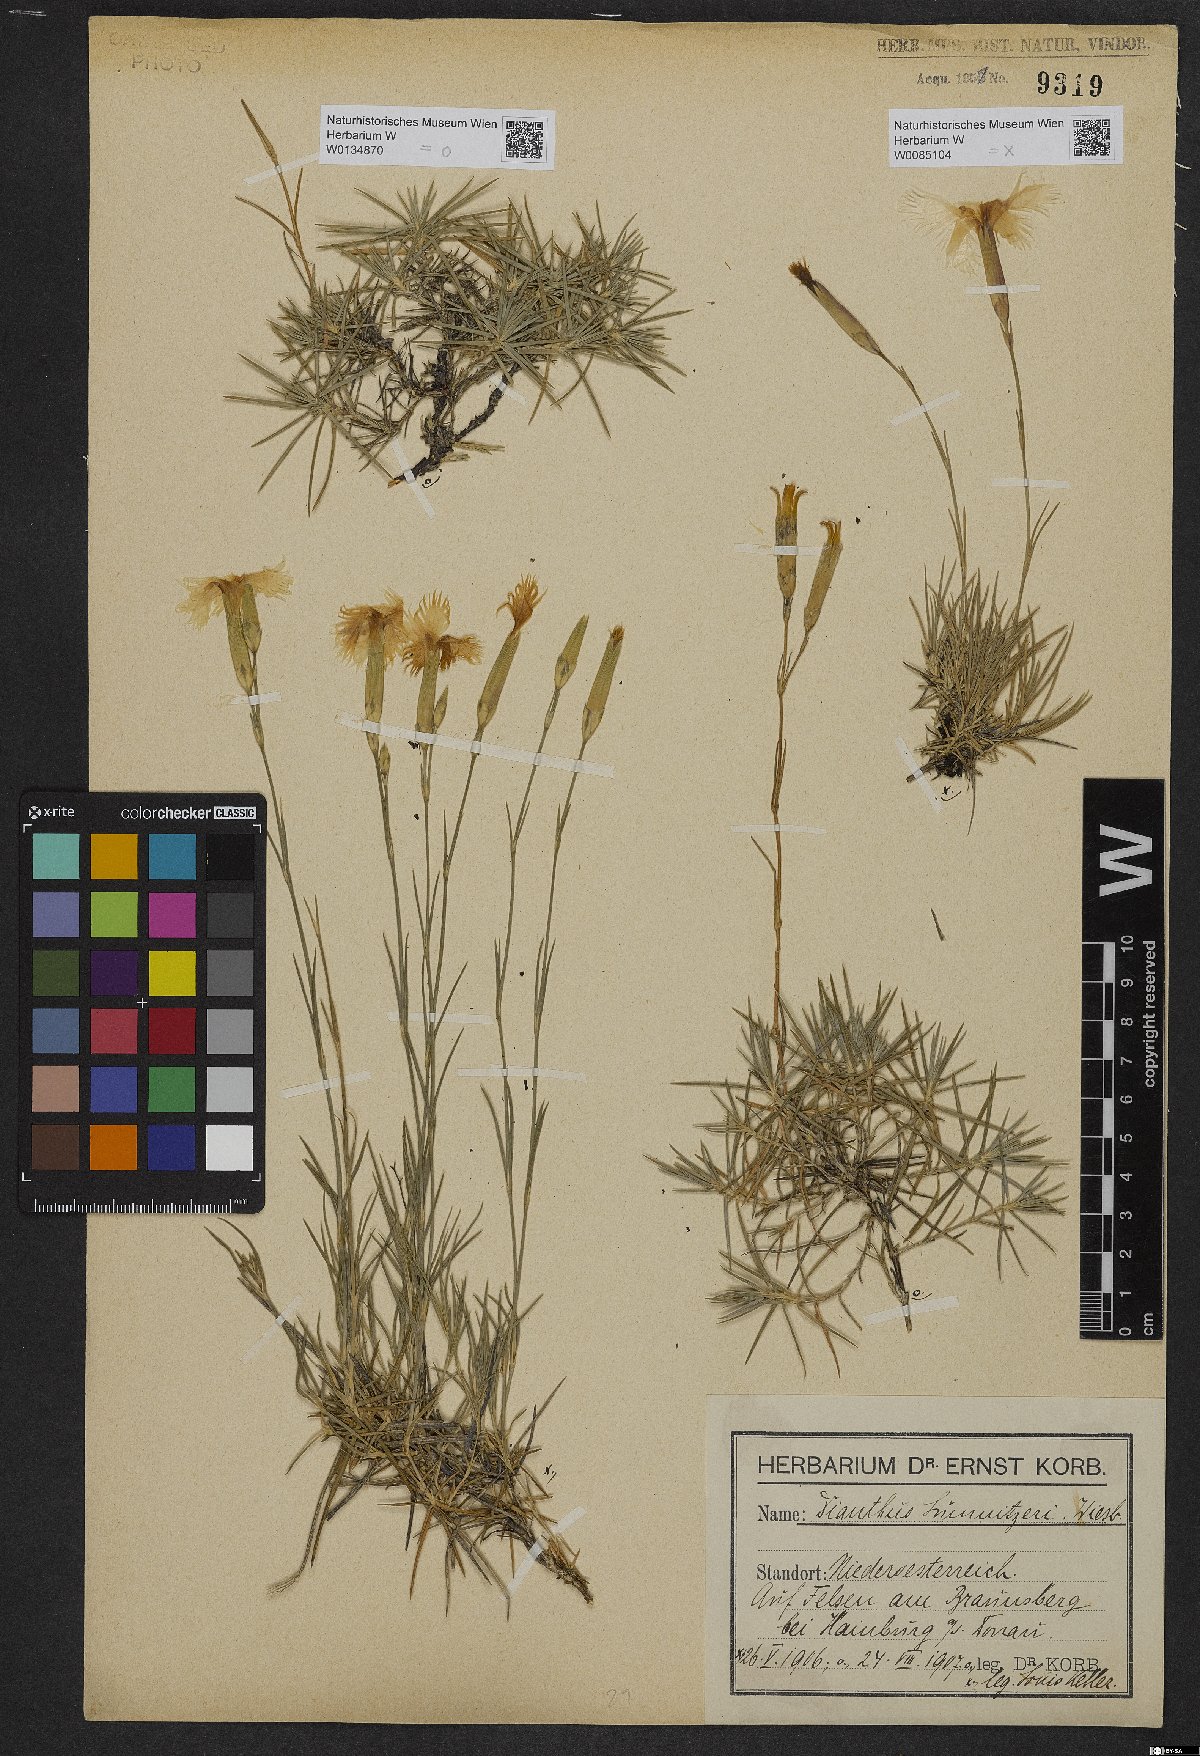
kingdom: Plantae
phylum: Tracheophyta
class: Magnoliopsida
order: Caryophyllales
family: Caryophyllaceae
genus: Dianthus
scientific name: Dianthus praecox
